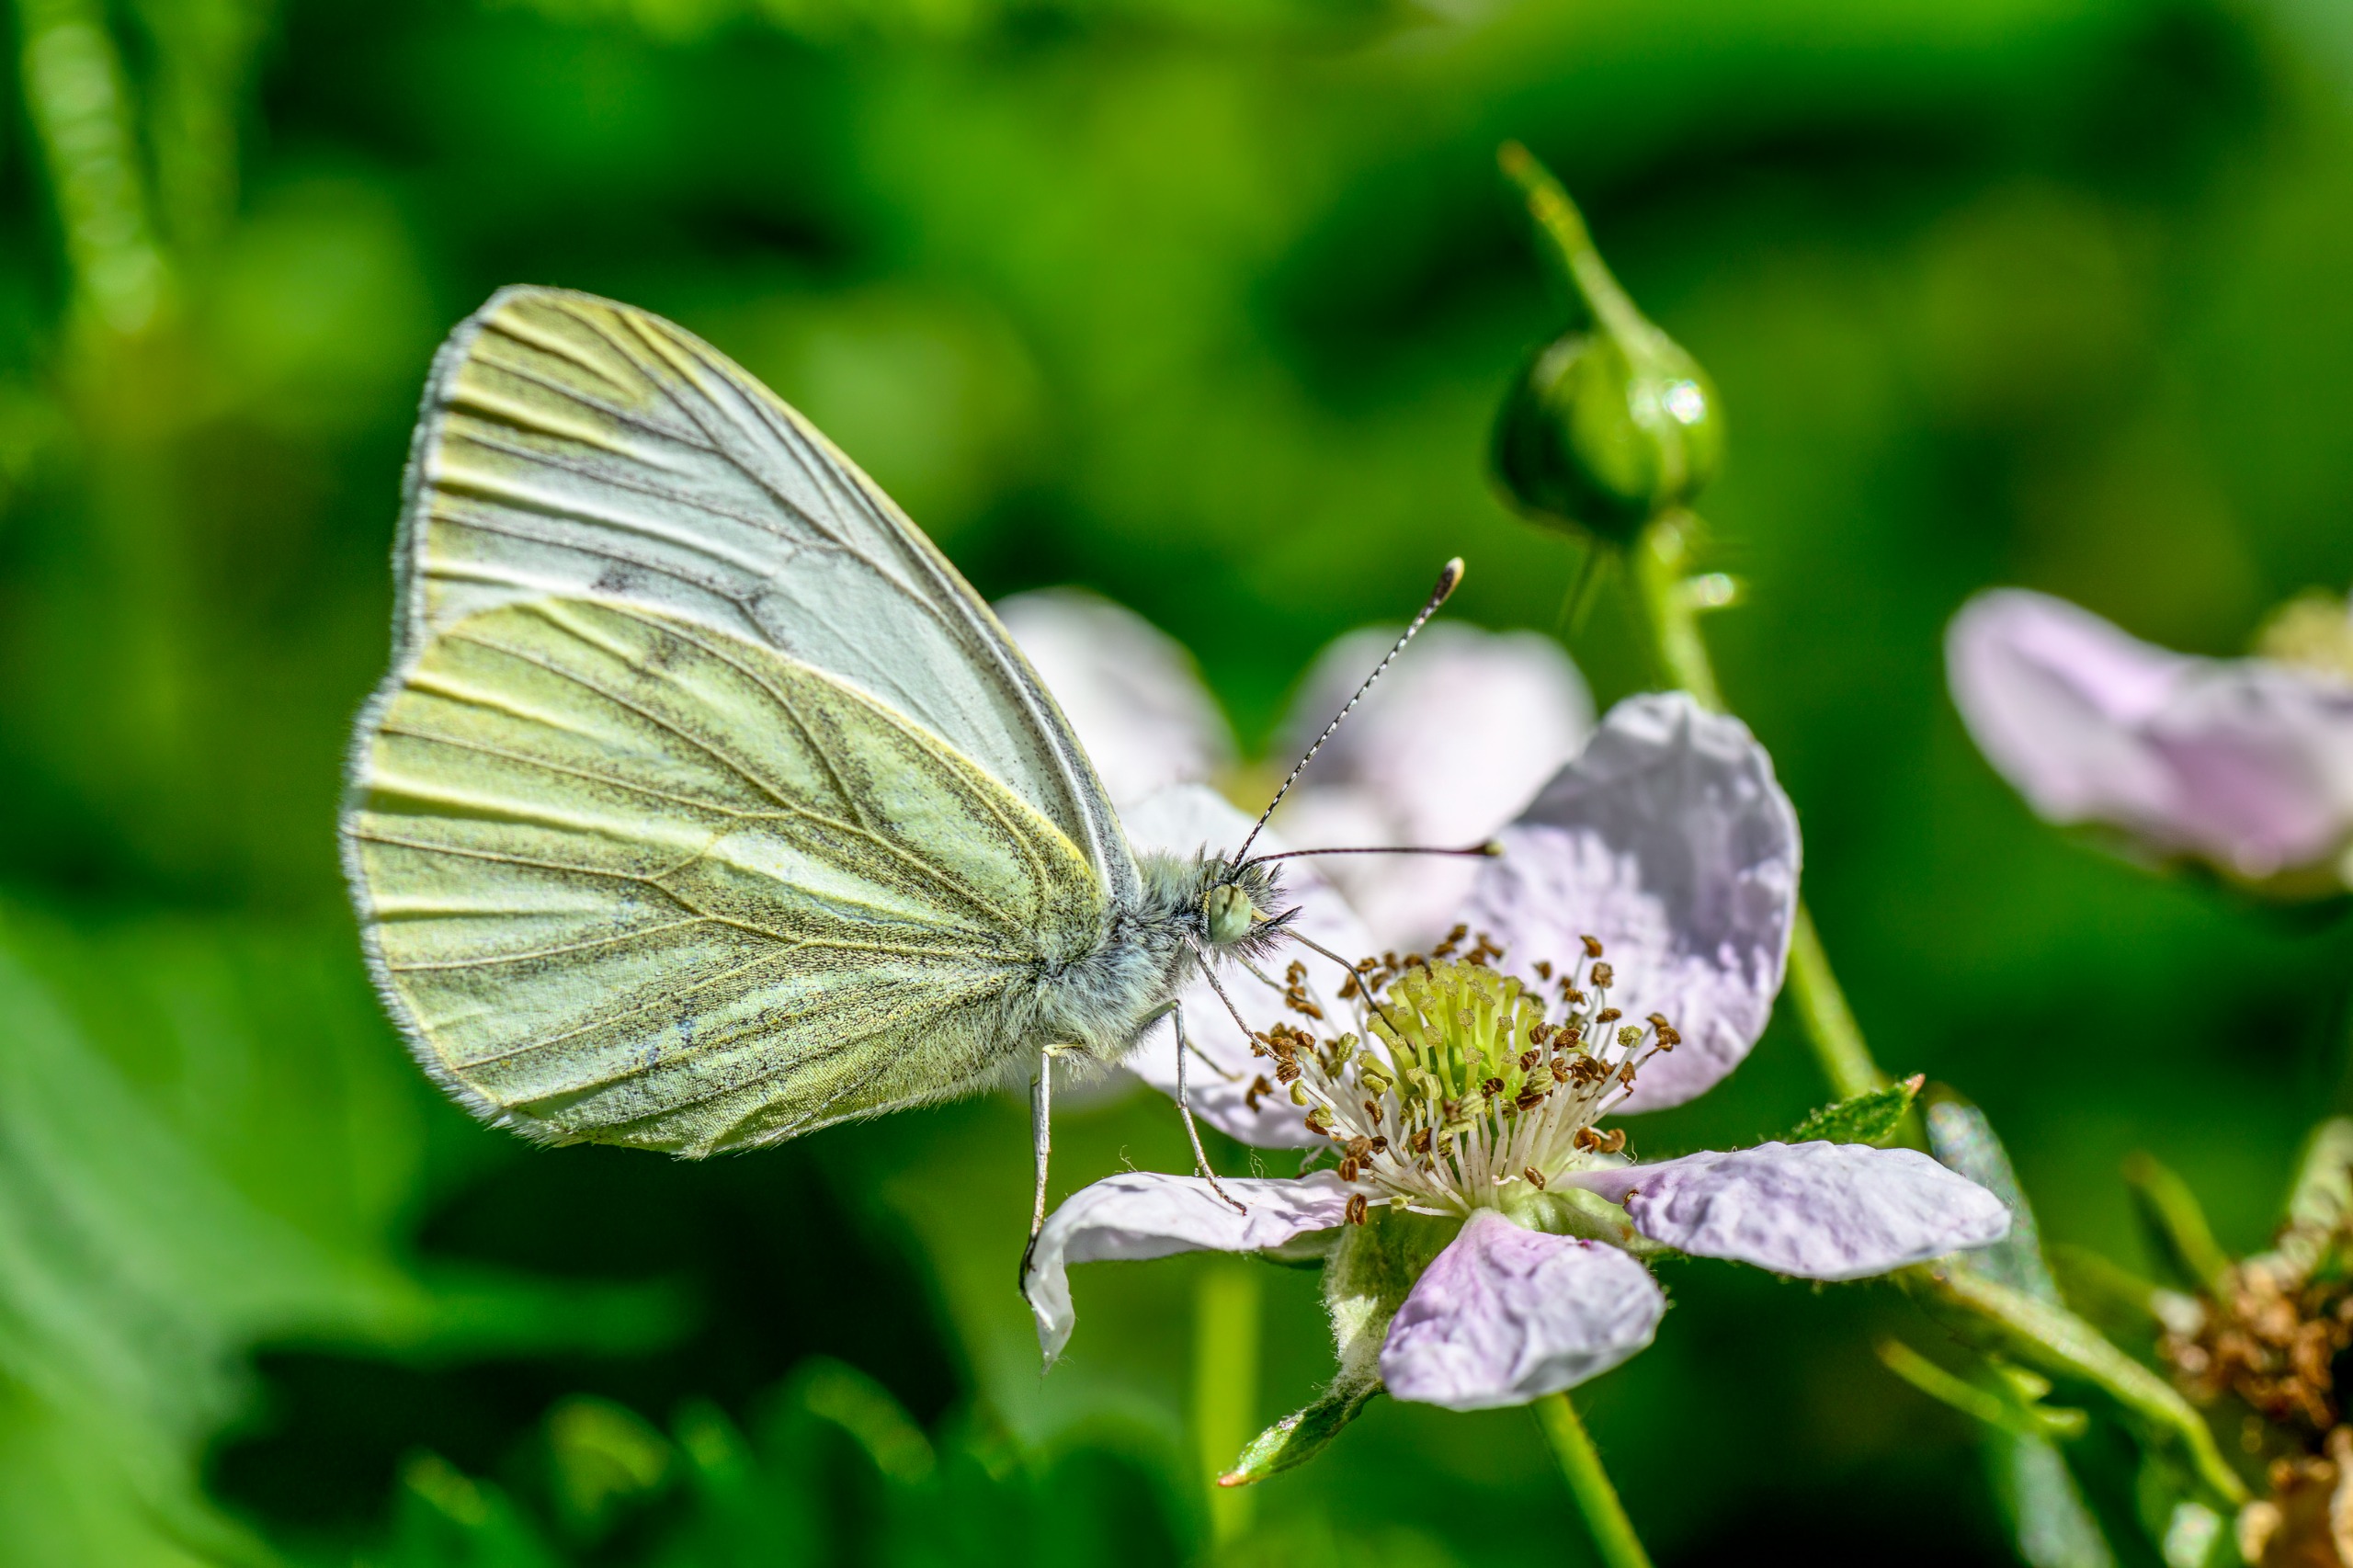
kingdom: Animalia
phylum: Arthropoda
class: Insecta
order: Lepidoptera
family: Pieridae
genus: Pieris
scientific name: Pieris napi
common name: Grønåret kålsommerfugl
